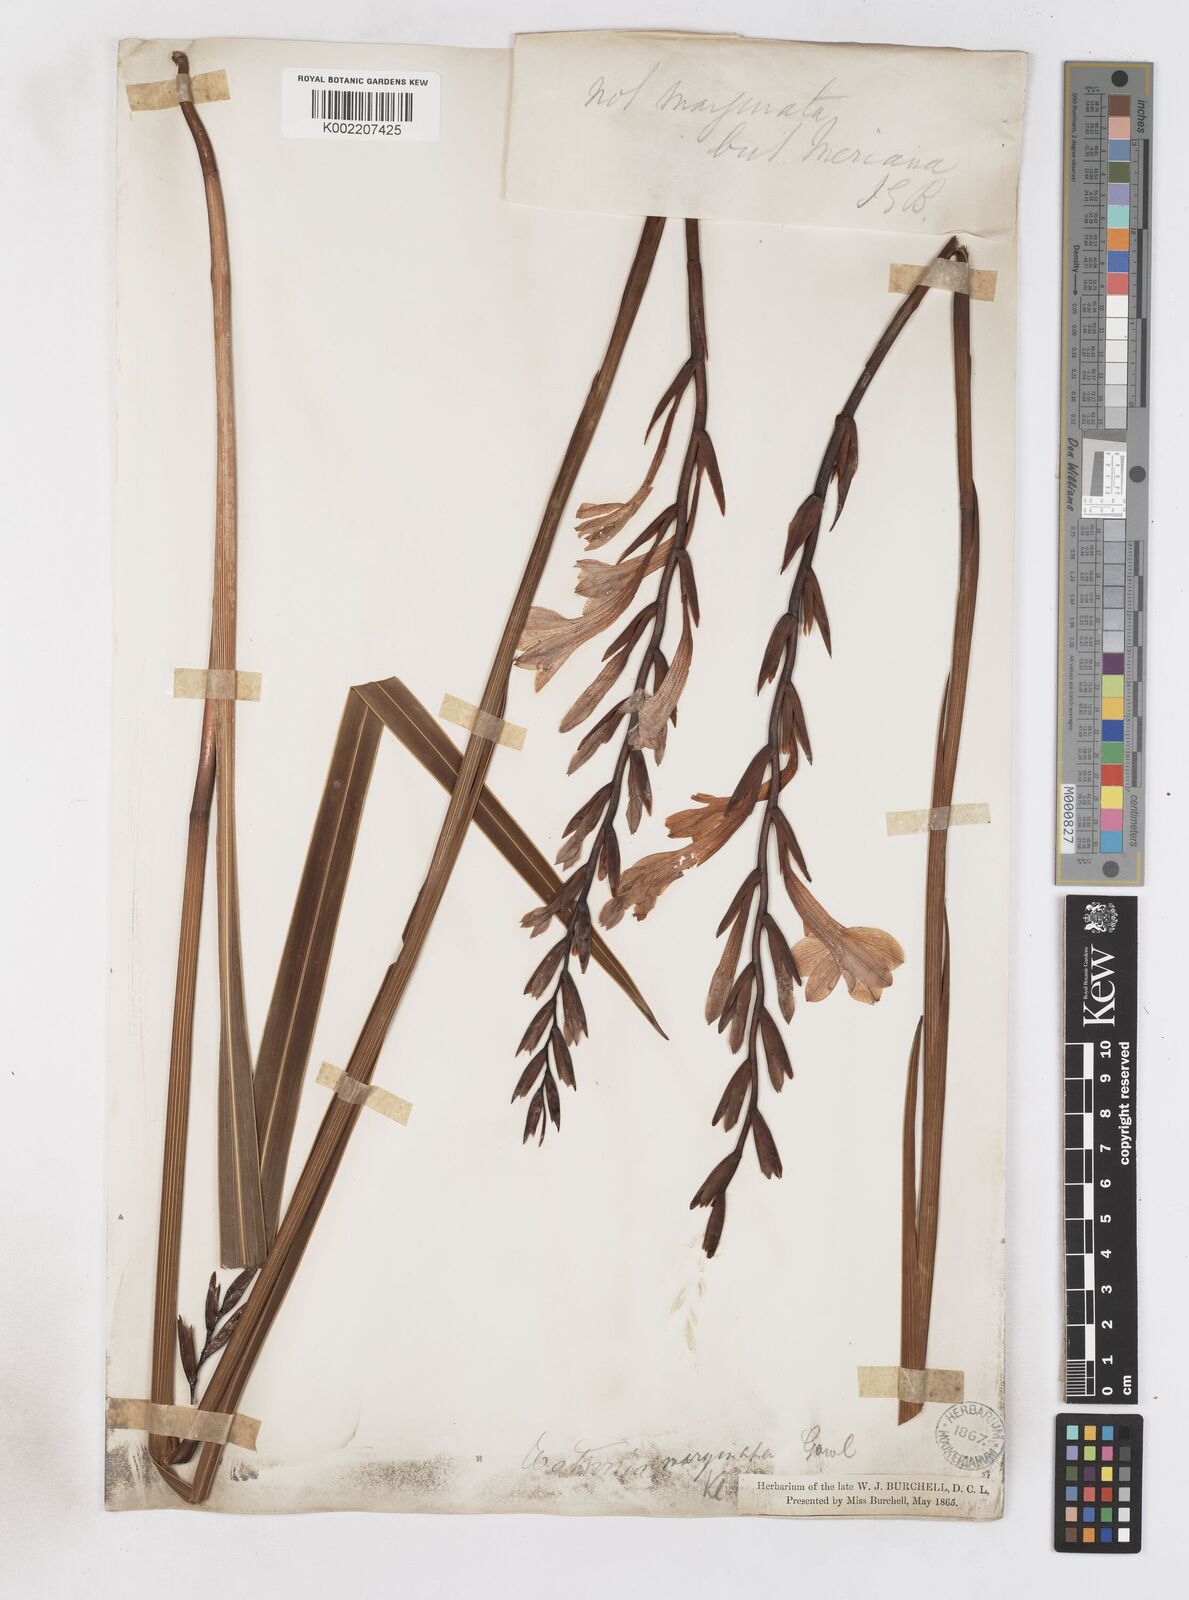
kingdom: Plantae
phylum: Tracheophyta
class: Liliopsida
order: Asparagales
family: Iridaceae
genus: Watsonia
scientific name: Watsonia pillansii
